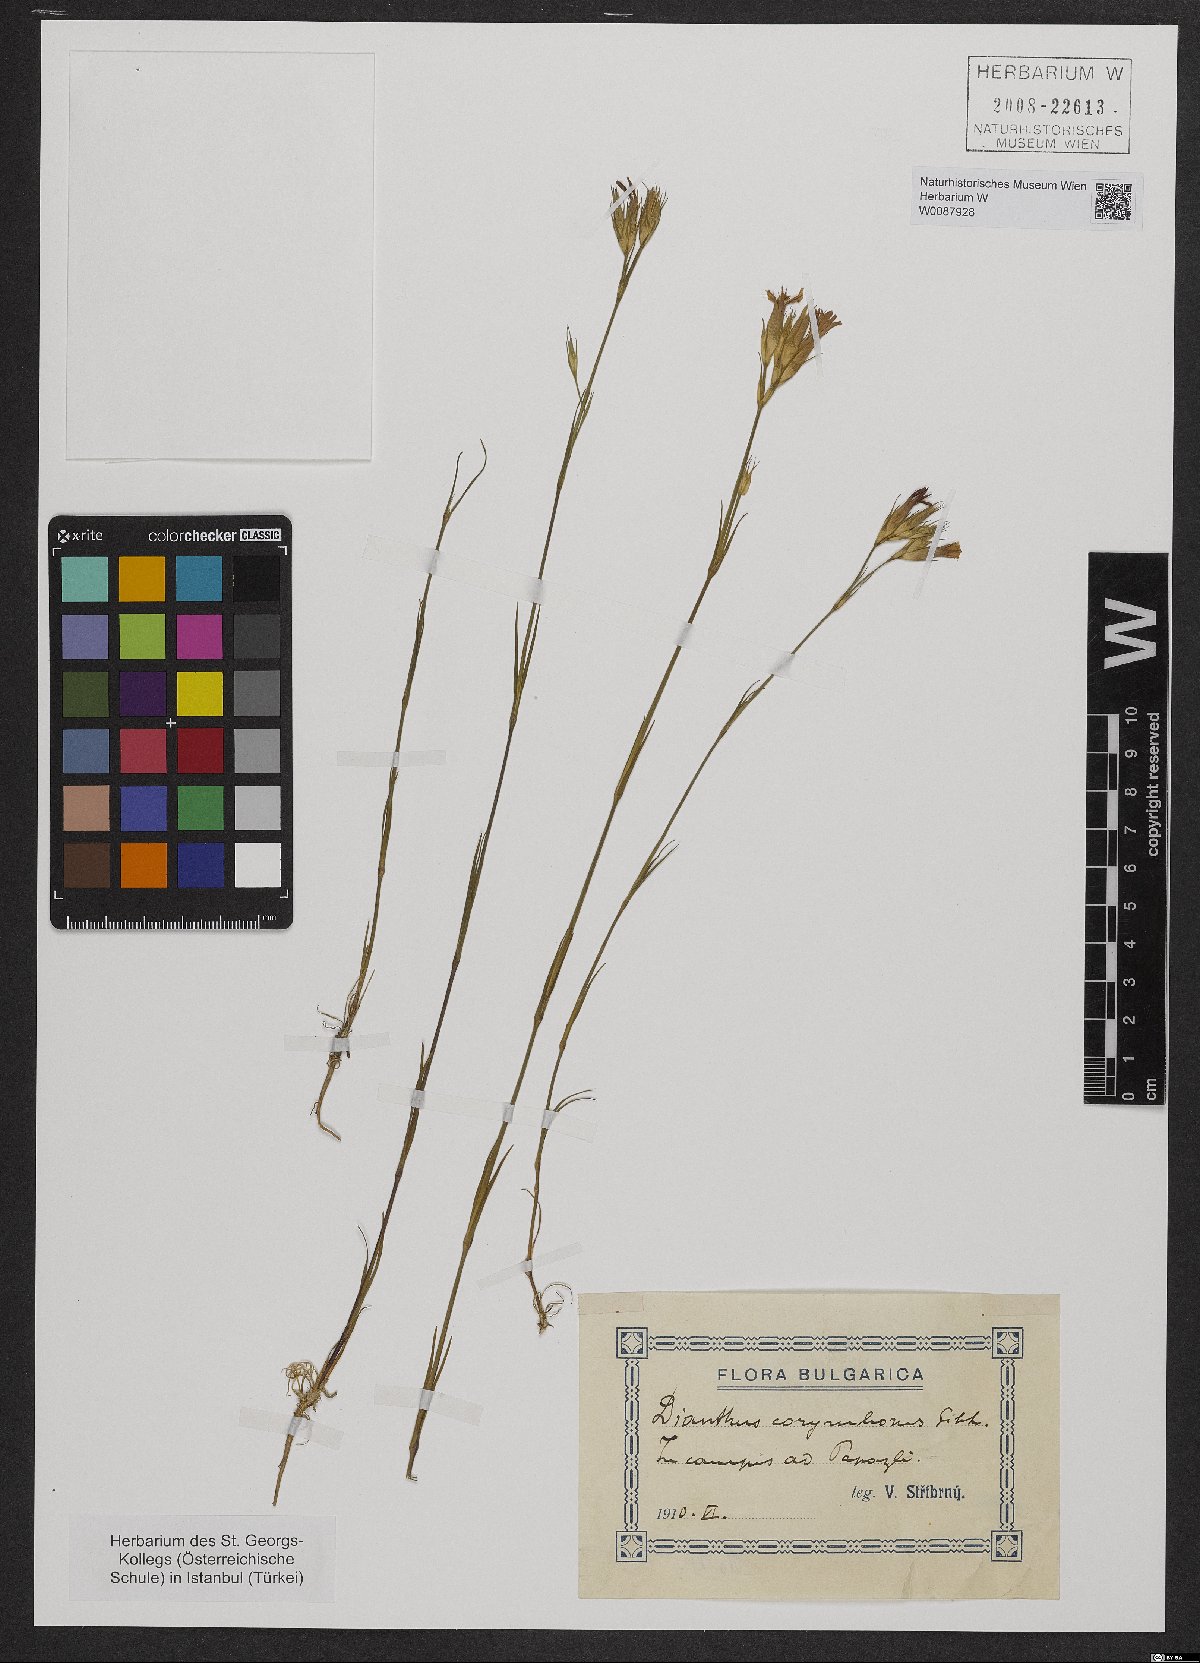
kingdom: Plantae
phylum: Tracheophyta
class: Magnoliopsida
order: Caryophyllales
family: Caryophyllaceae
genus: Dianthus
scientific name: Dianthus corymbosus
